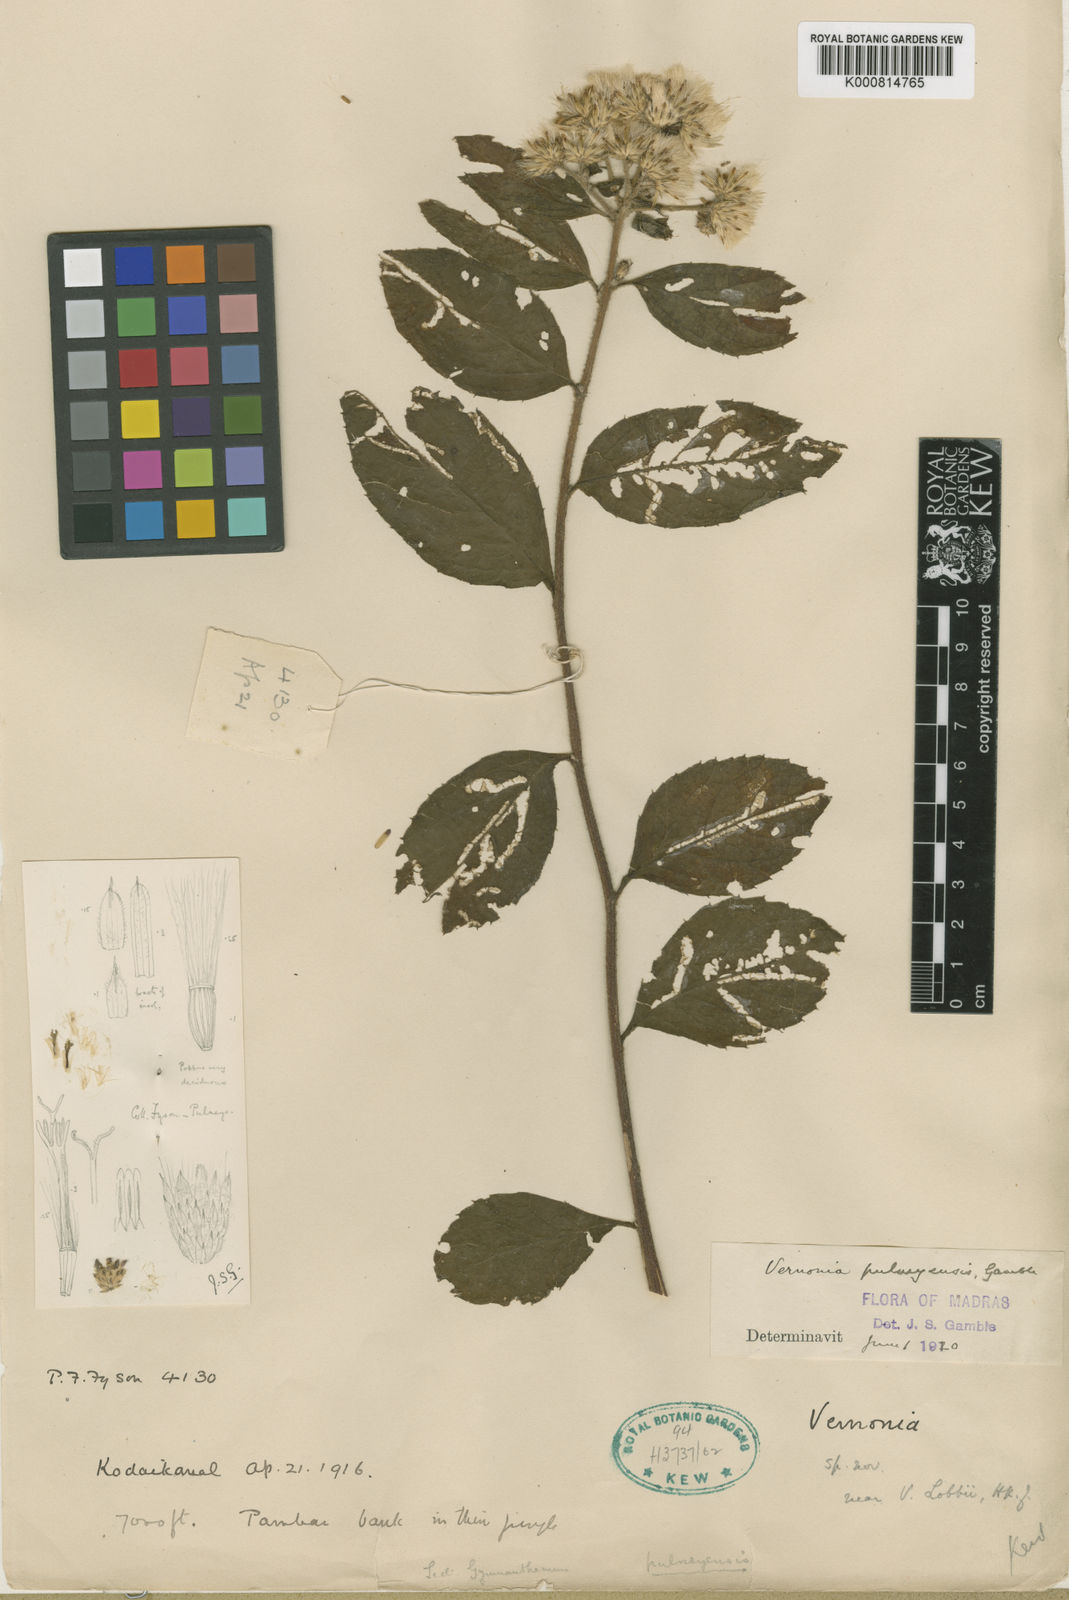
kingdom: Plantae
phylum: Tracheophyta
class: Magnoliopsida
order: Asterales
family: Asteraceae
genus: Vernonia
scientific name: Vernonia
